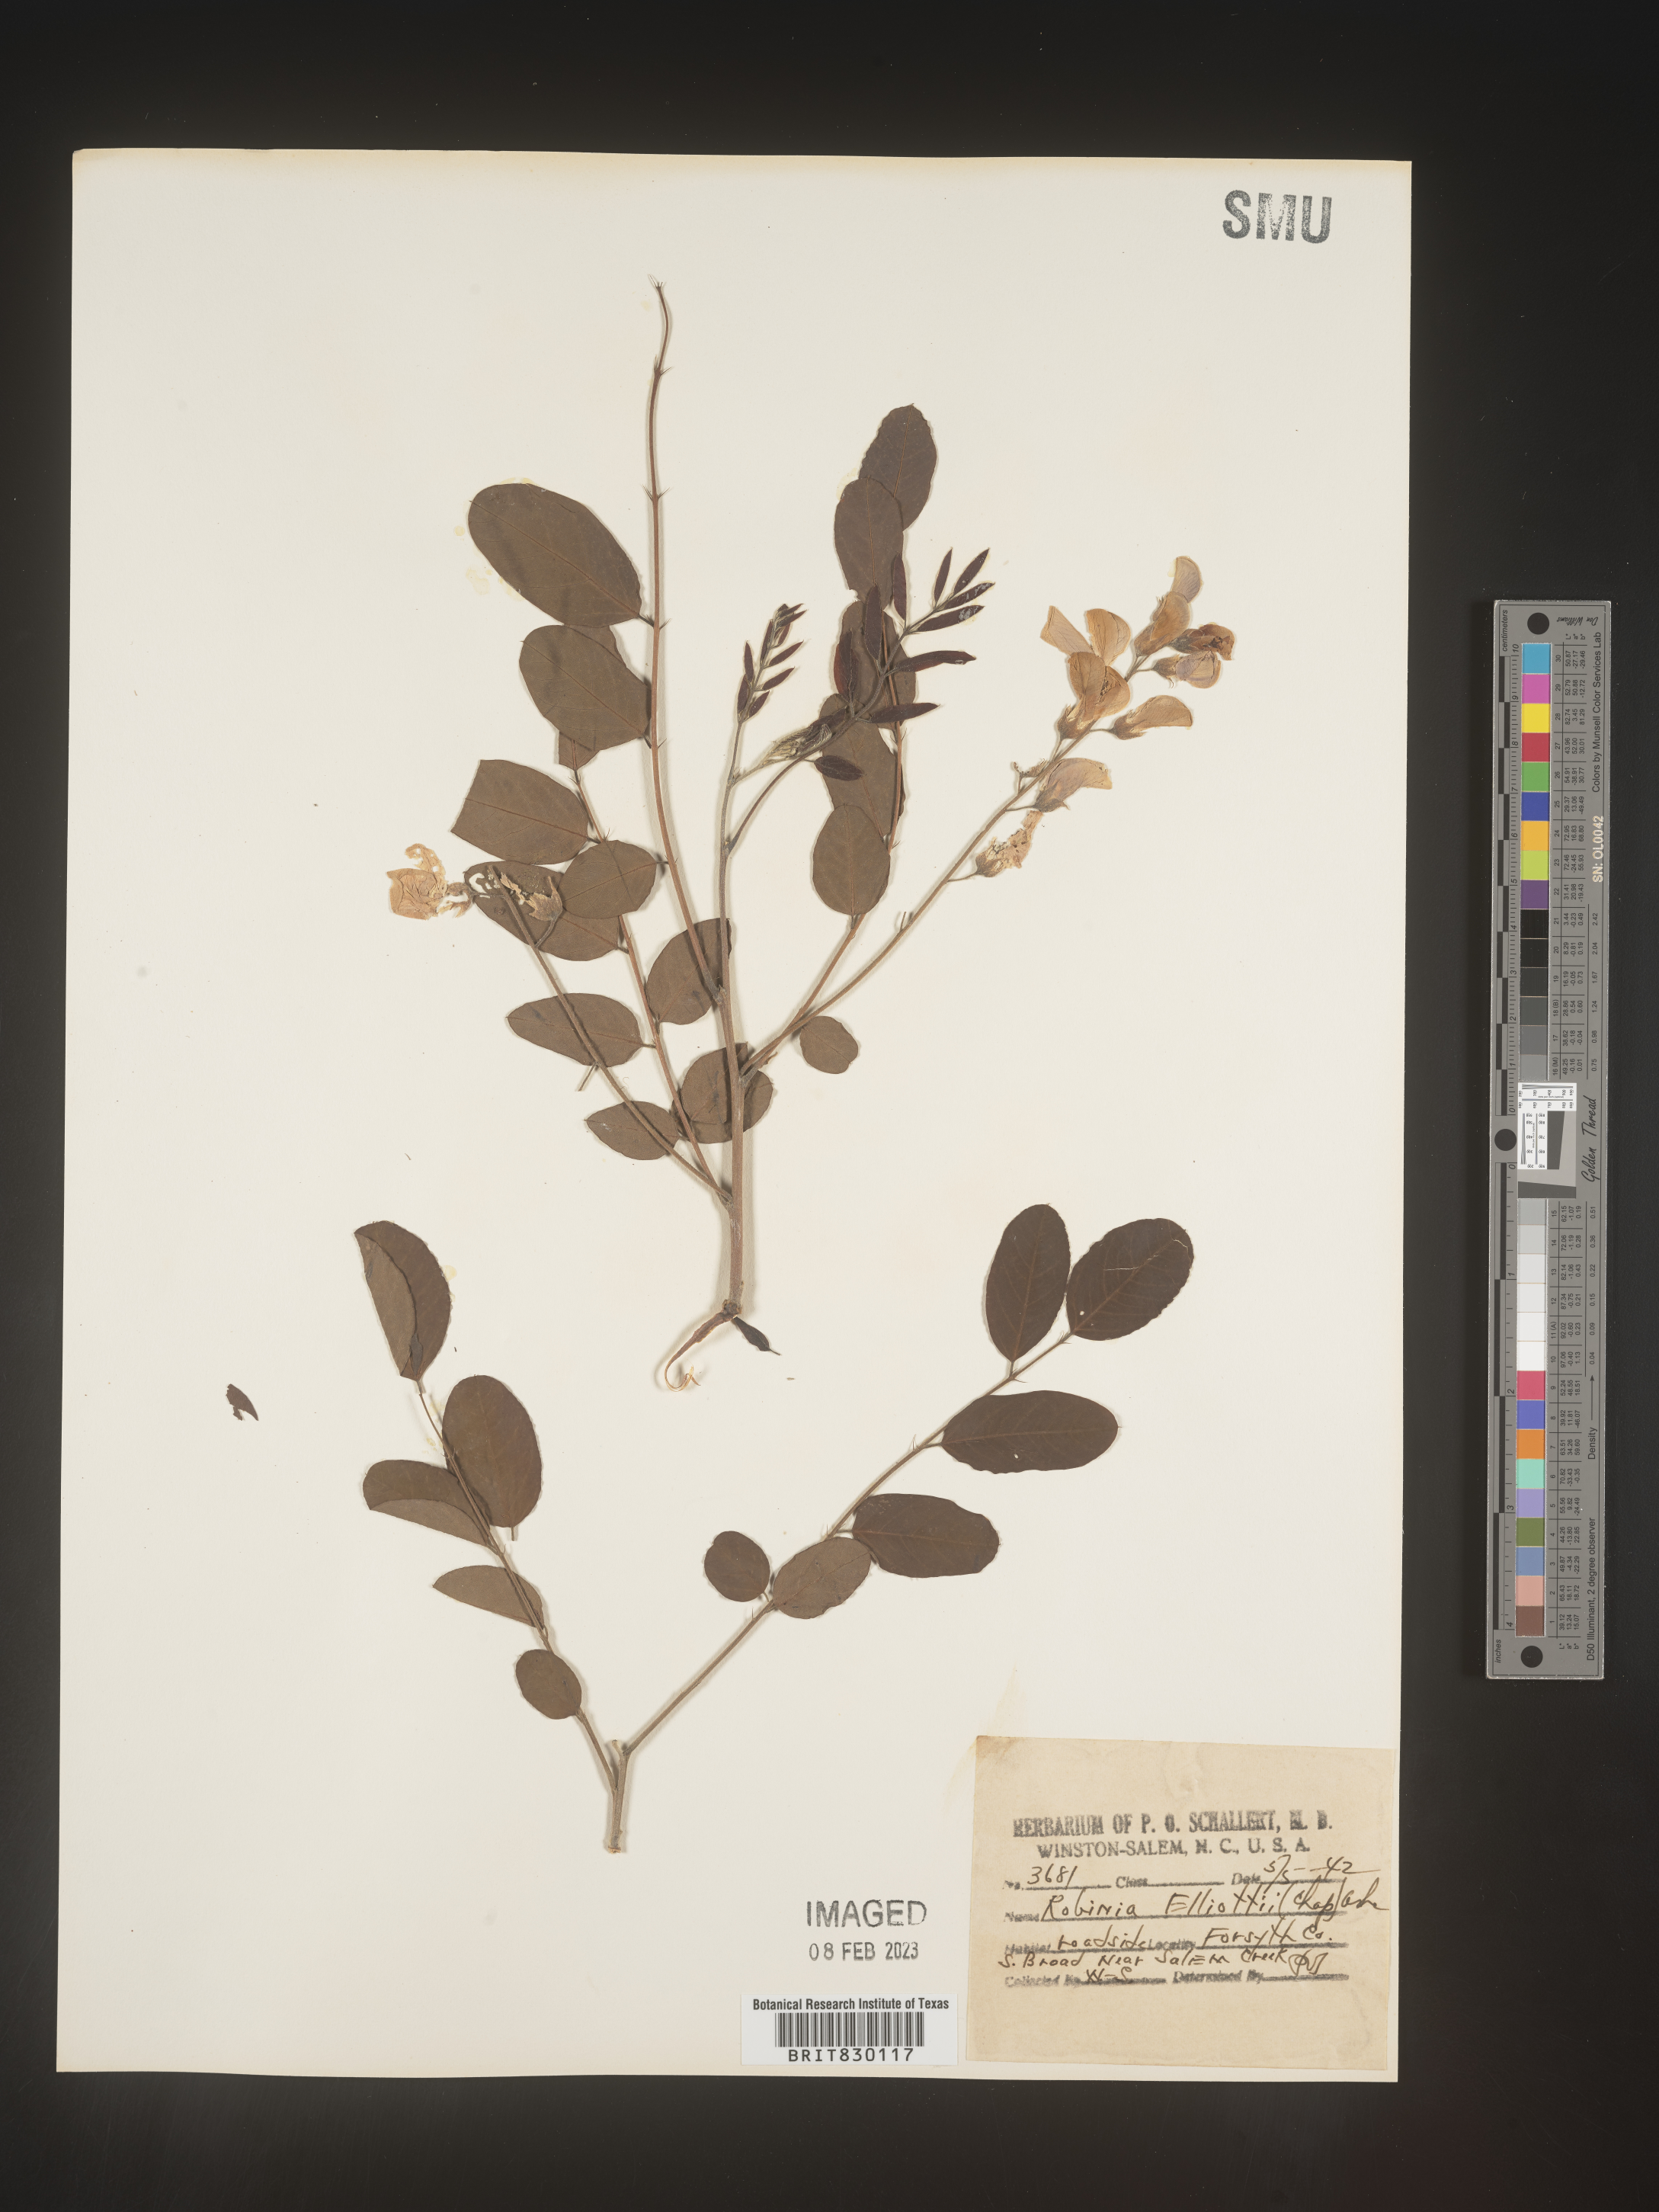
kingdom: Plantae
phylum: Tracheophyta
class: Magnoliopsida
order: Fabales
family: Fabaceae
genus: Robinia
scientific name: Robinia
